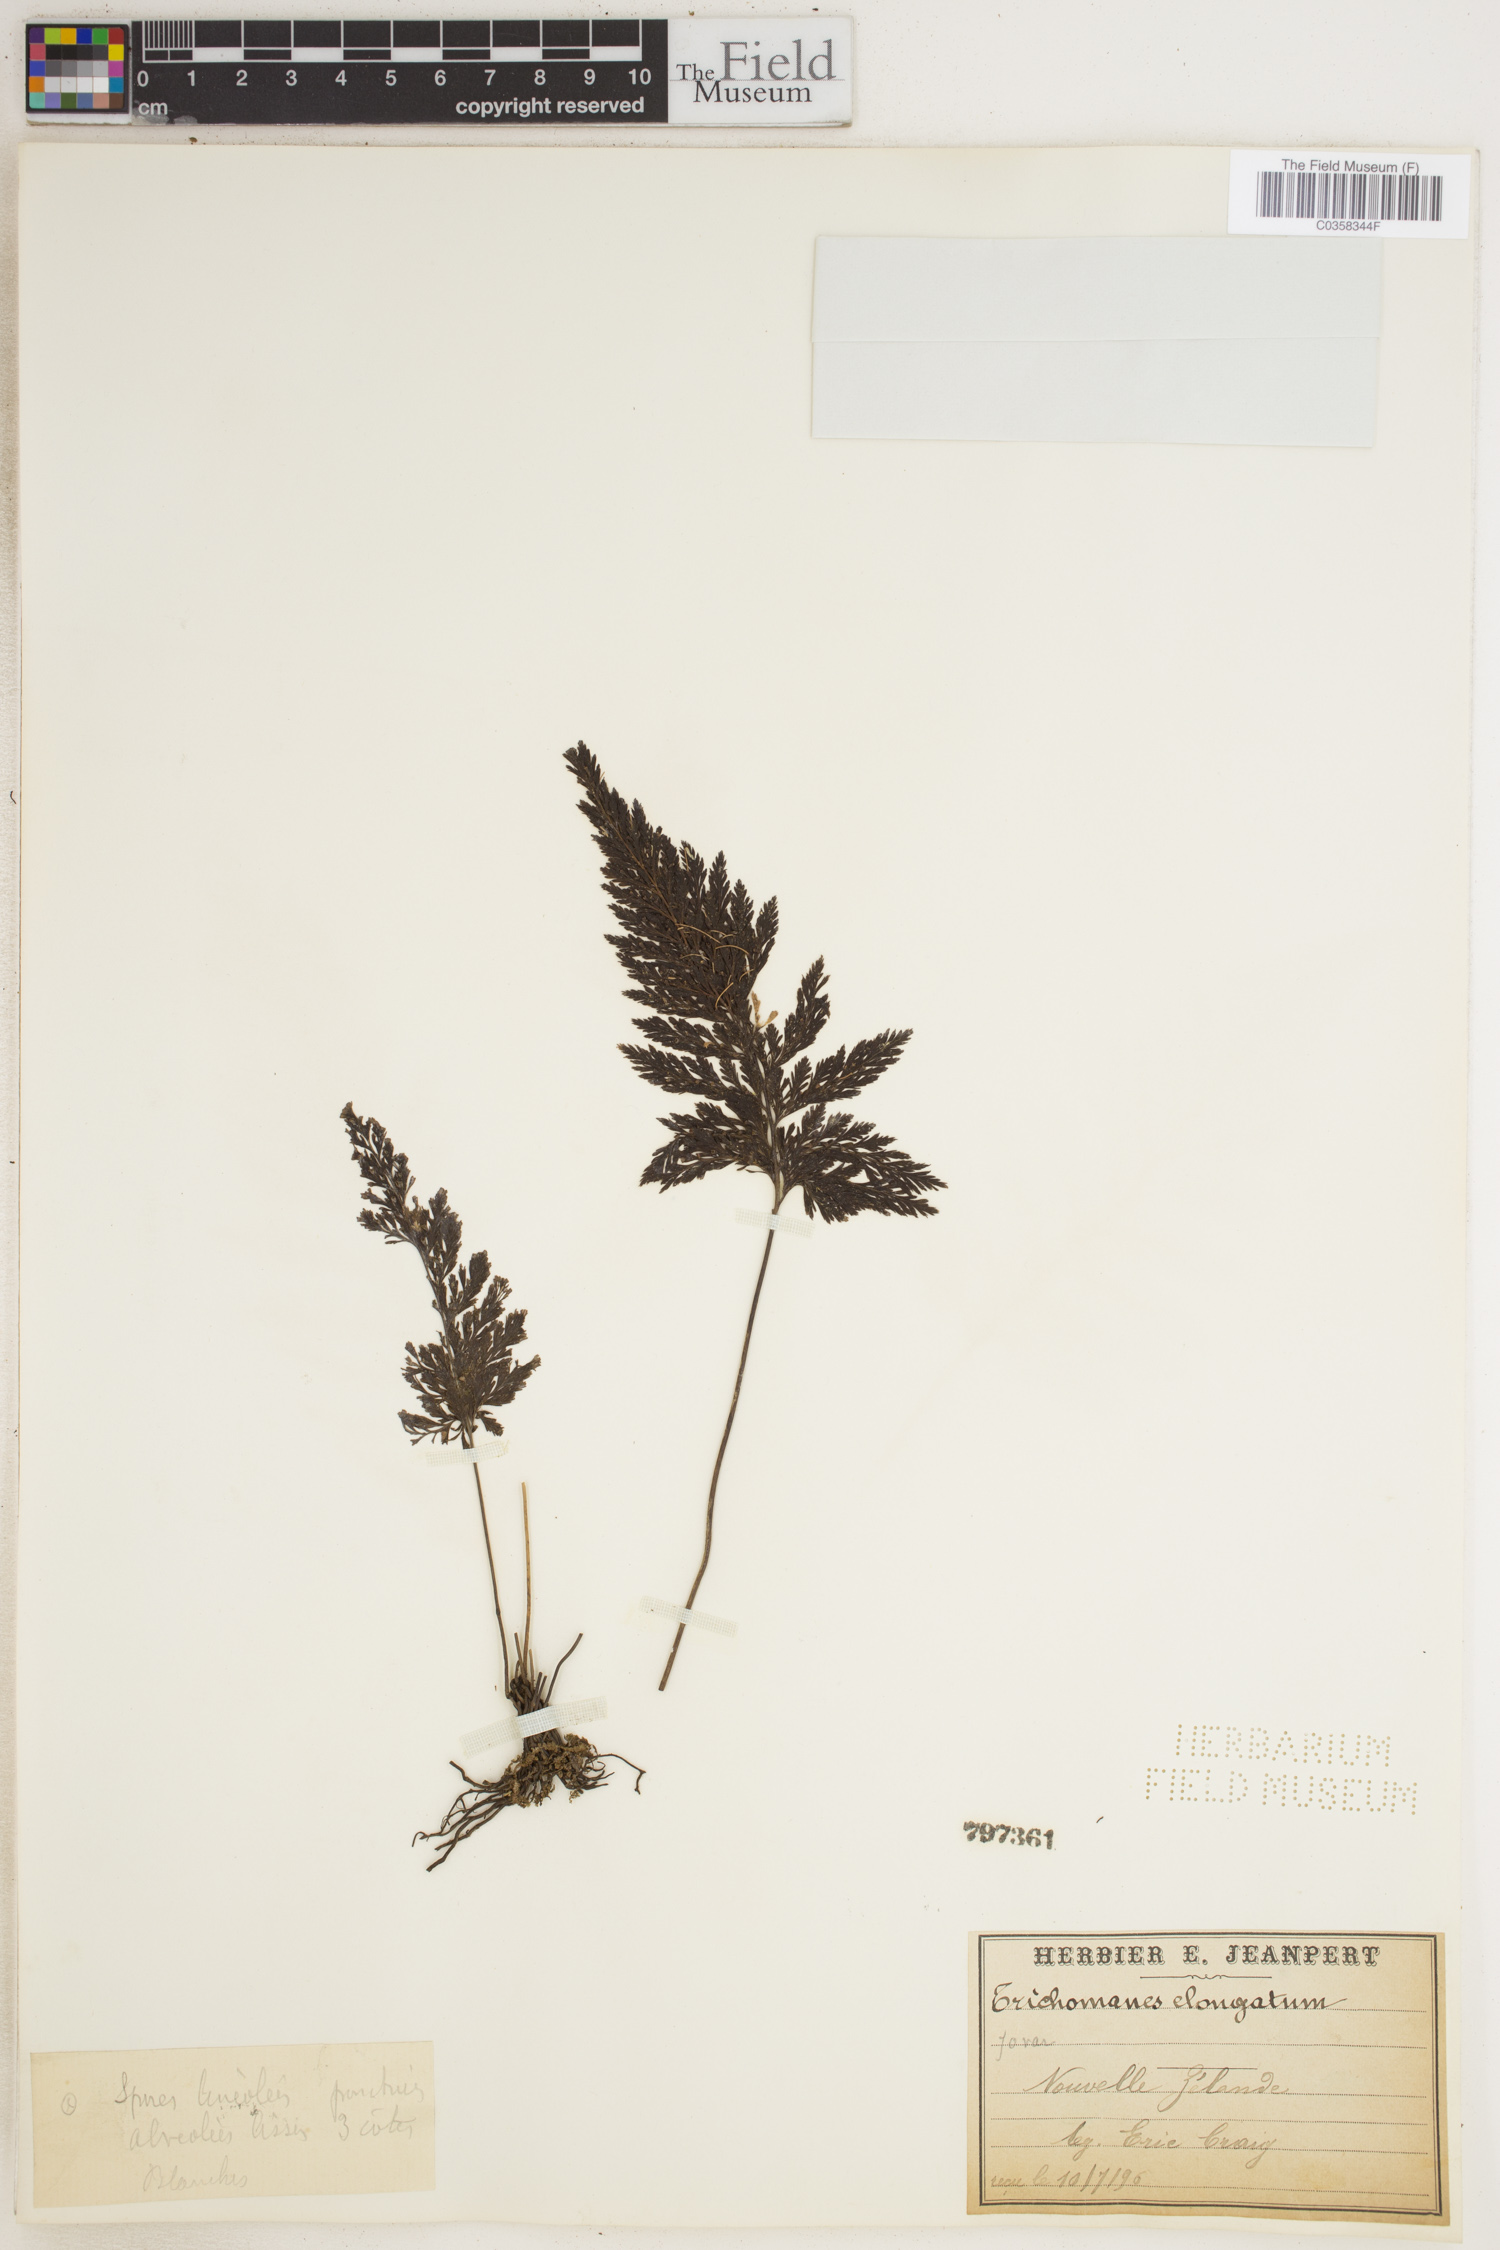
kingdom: Plantae
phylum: Tracheophyta
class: Polypodiopsida
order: Hymenophyllales
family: Hymenophyllaceae
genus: Abrodictyum
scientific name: Abrodictyum elongatum
